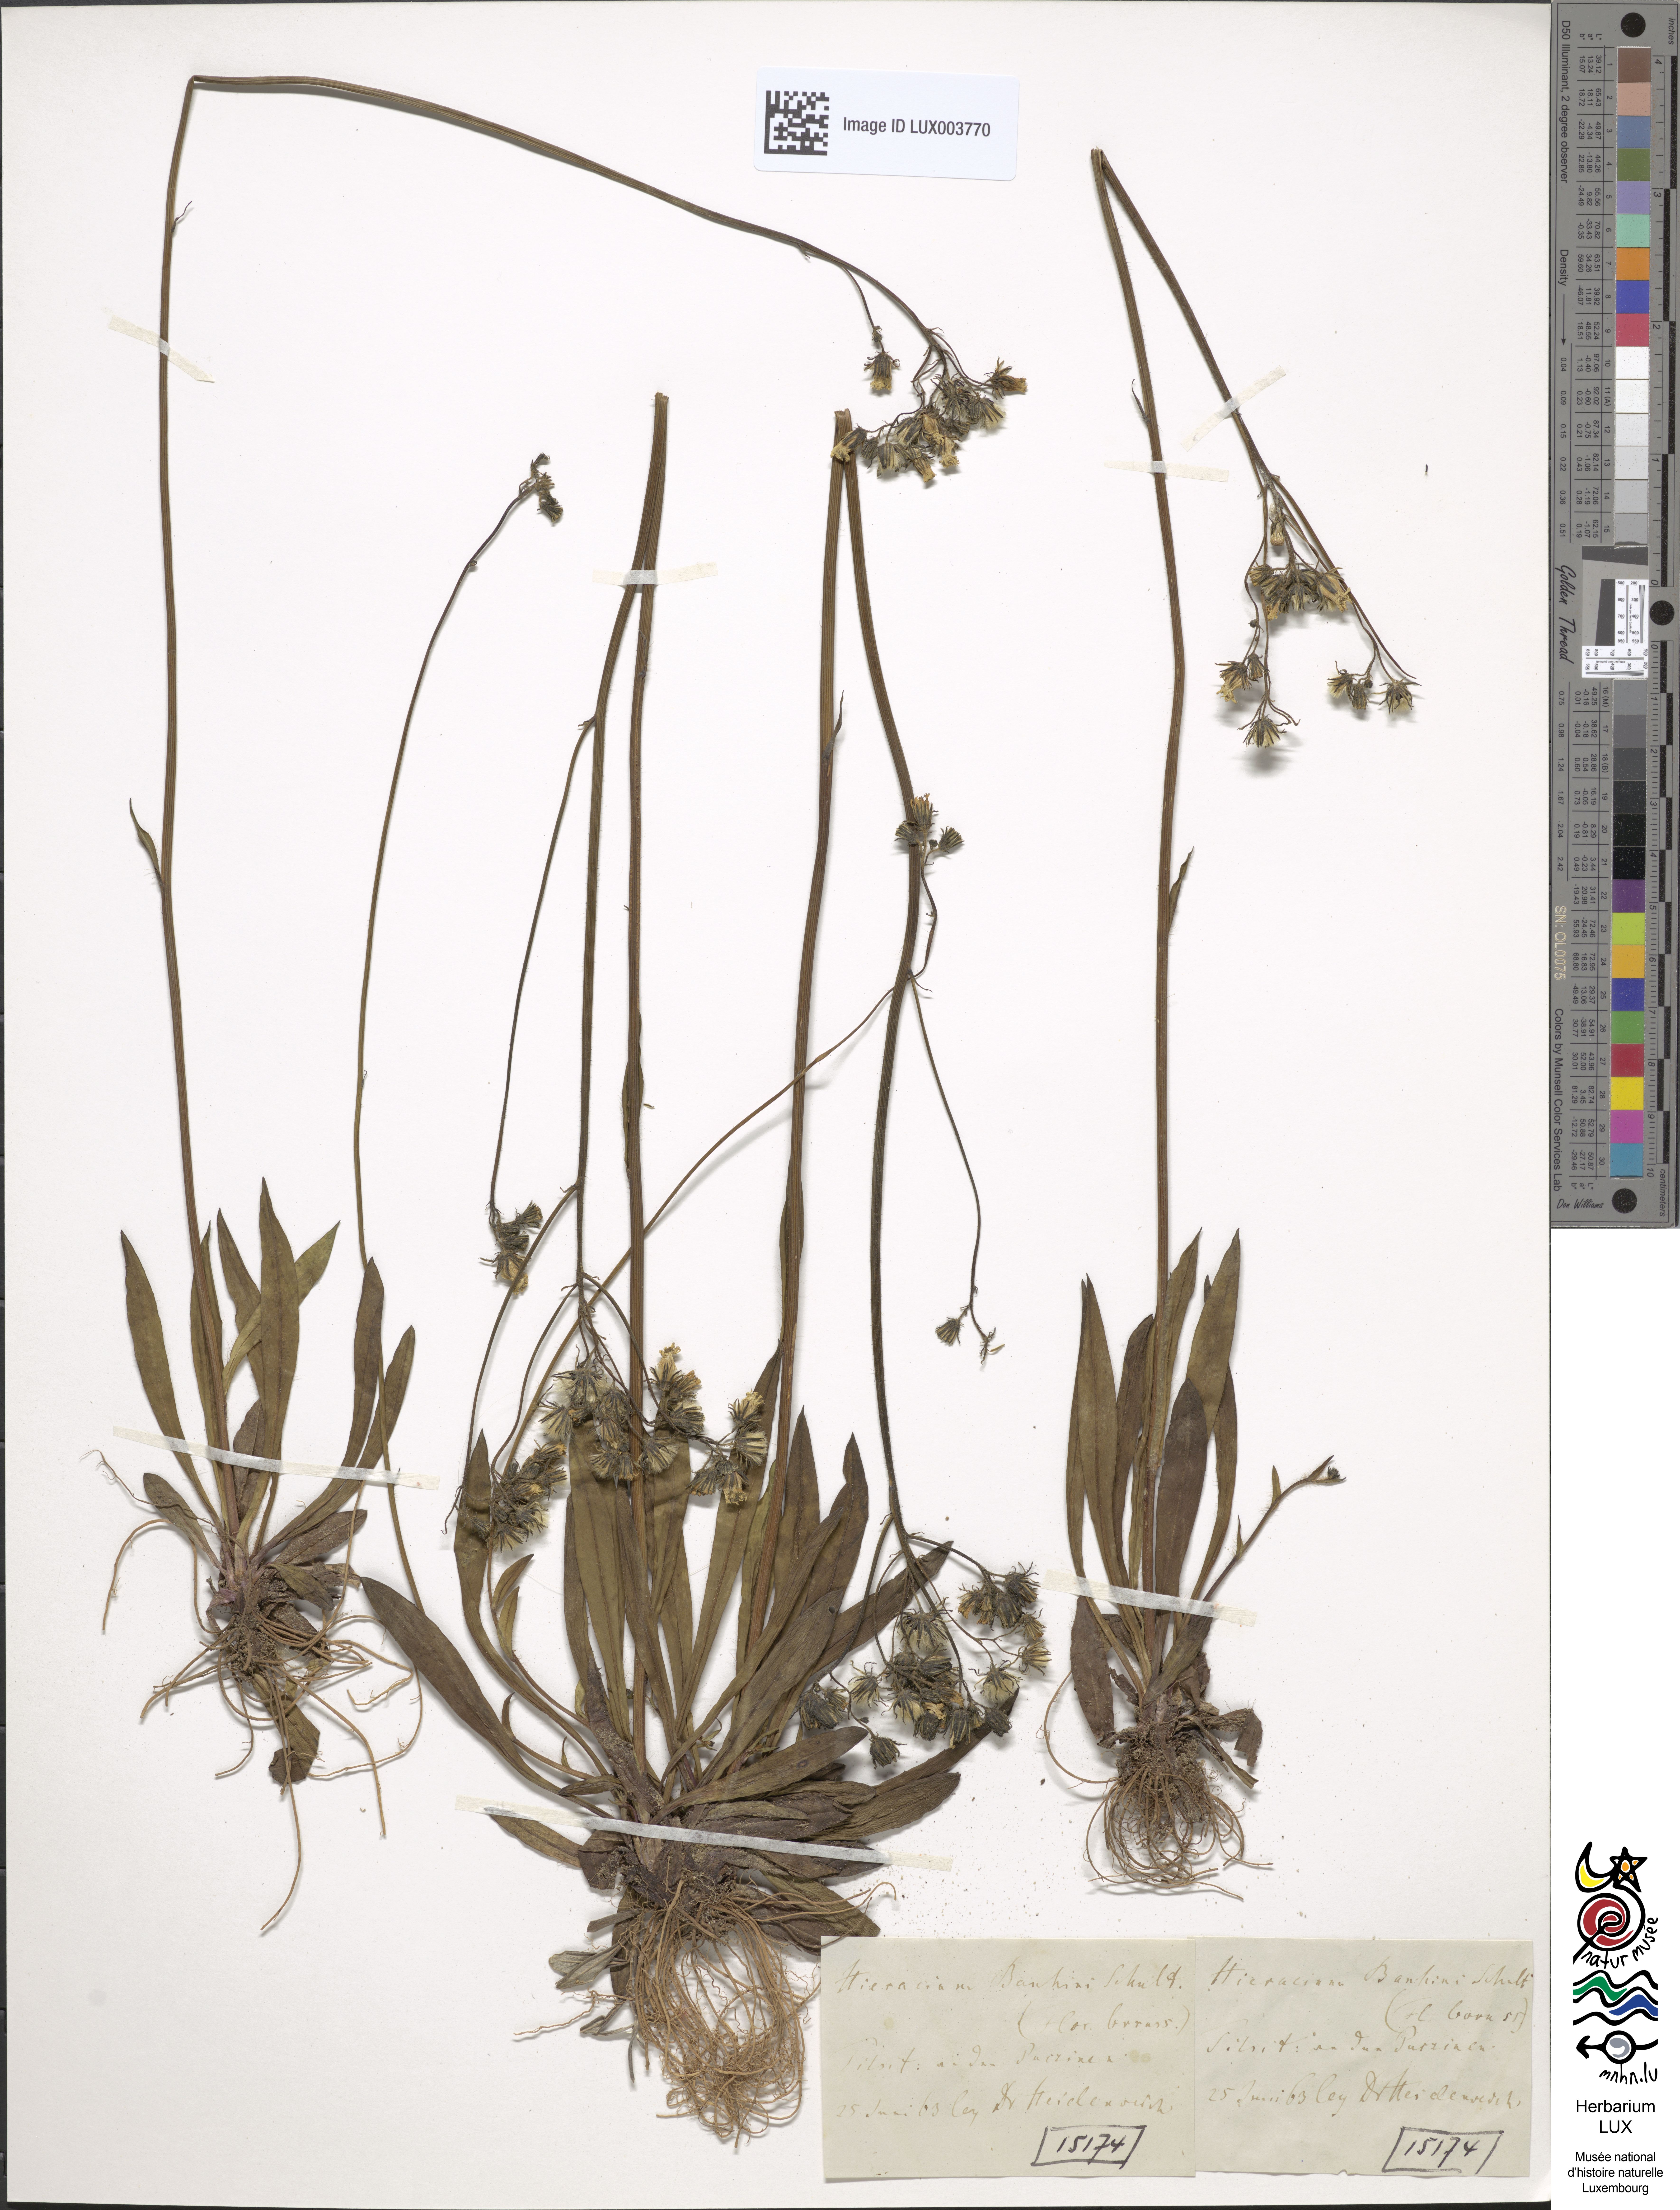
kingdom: Plantae
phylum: Tracheophyta
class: Magnoliopsida
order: Asterales
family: Asteraceae
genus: Pilosella
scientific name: Pilosella bauhini
